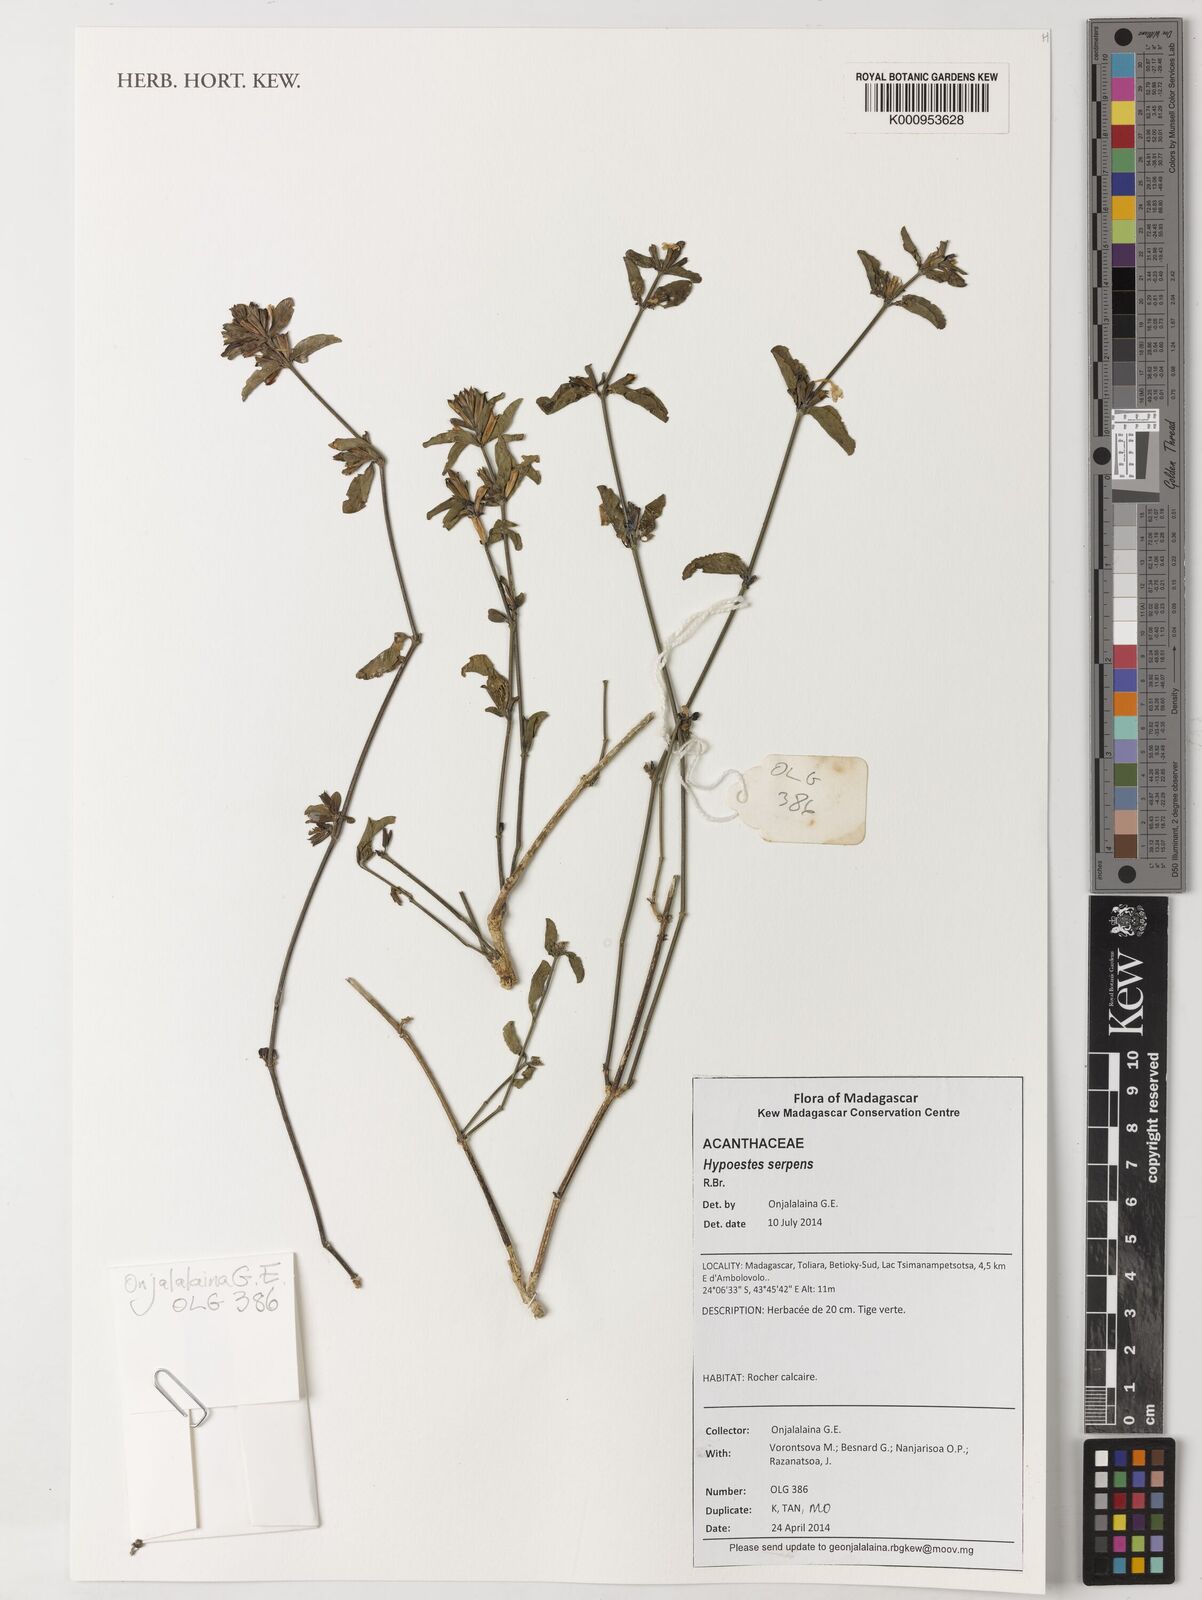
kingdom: Plantae
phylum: Tracheophyta
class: Magnoliopsida
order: Lamiales
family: Acanthaceae
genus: Hypoestes
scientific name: Hypoestes serpens
